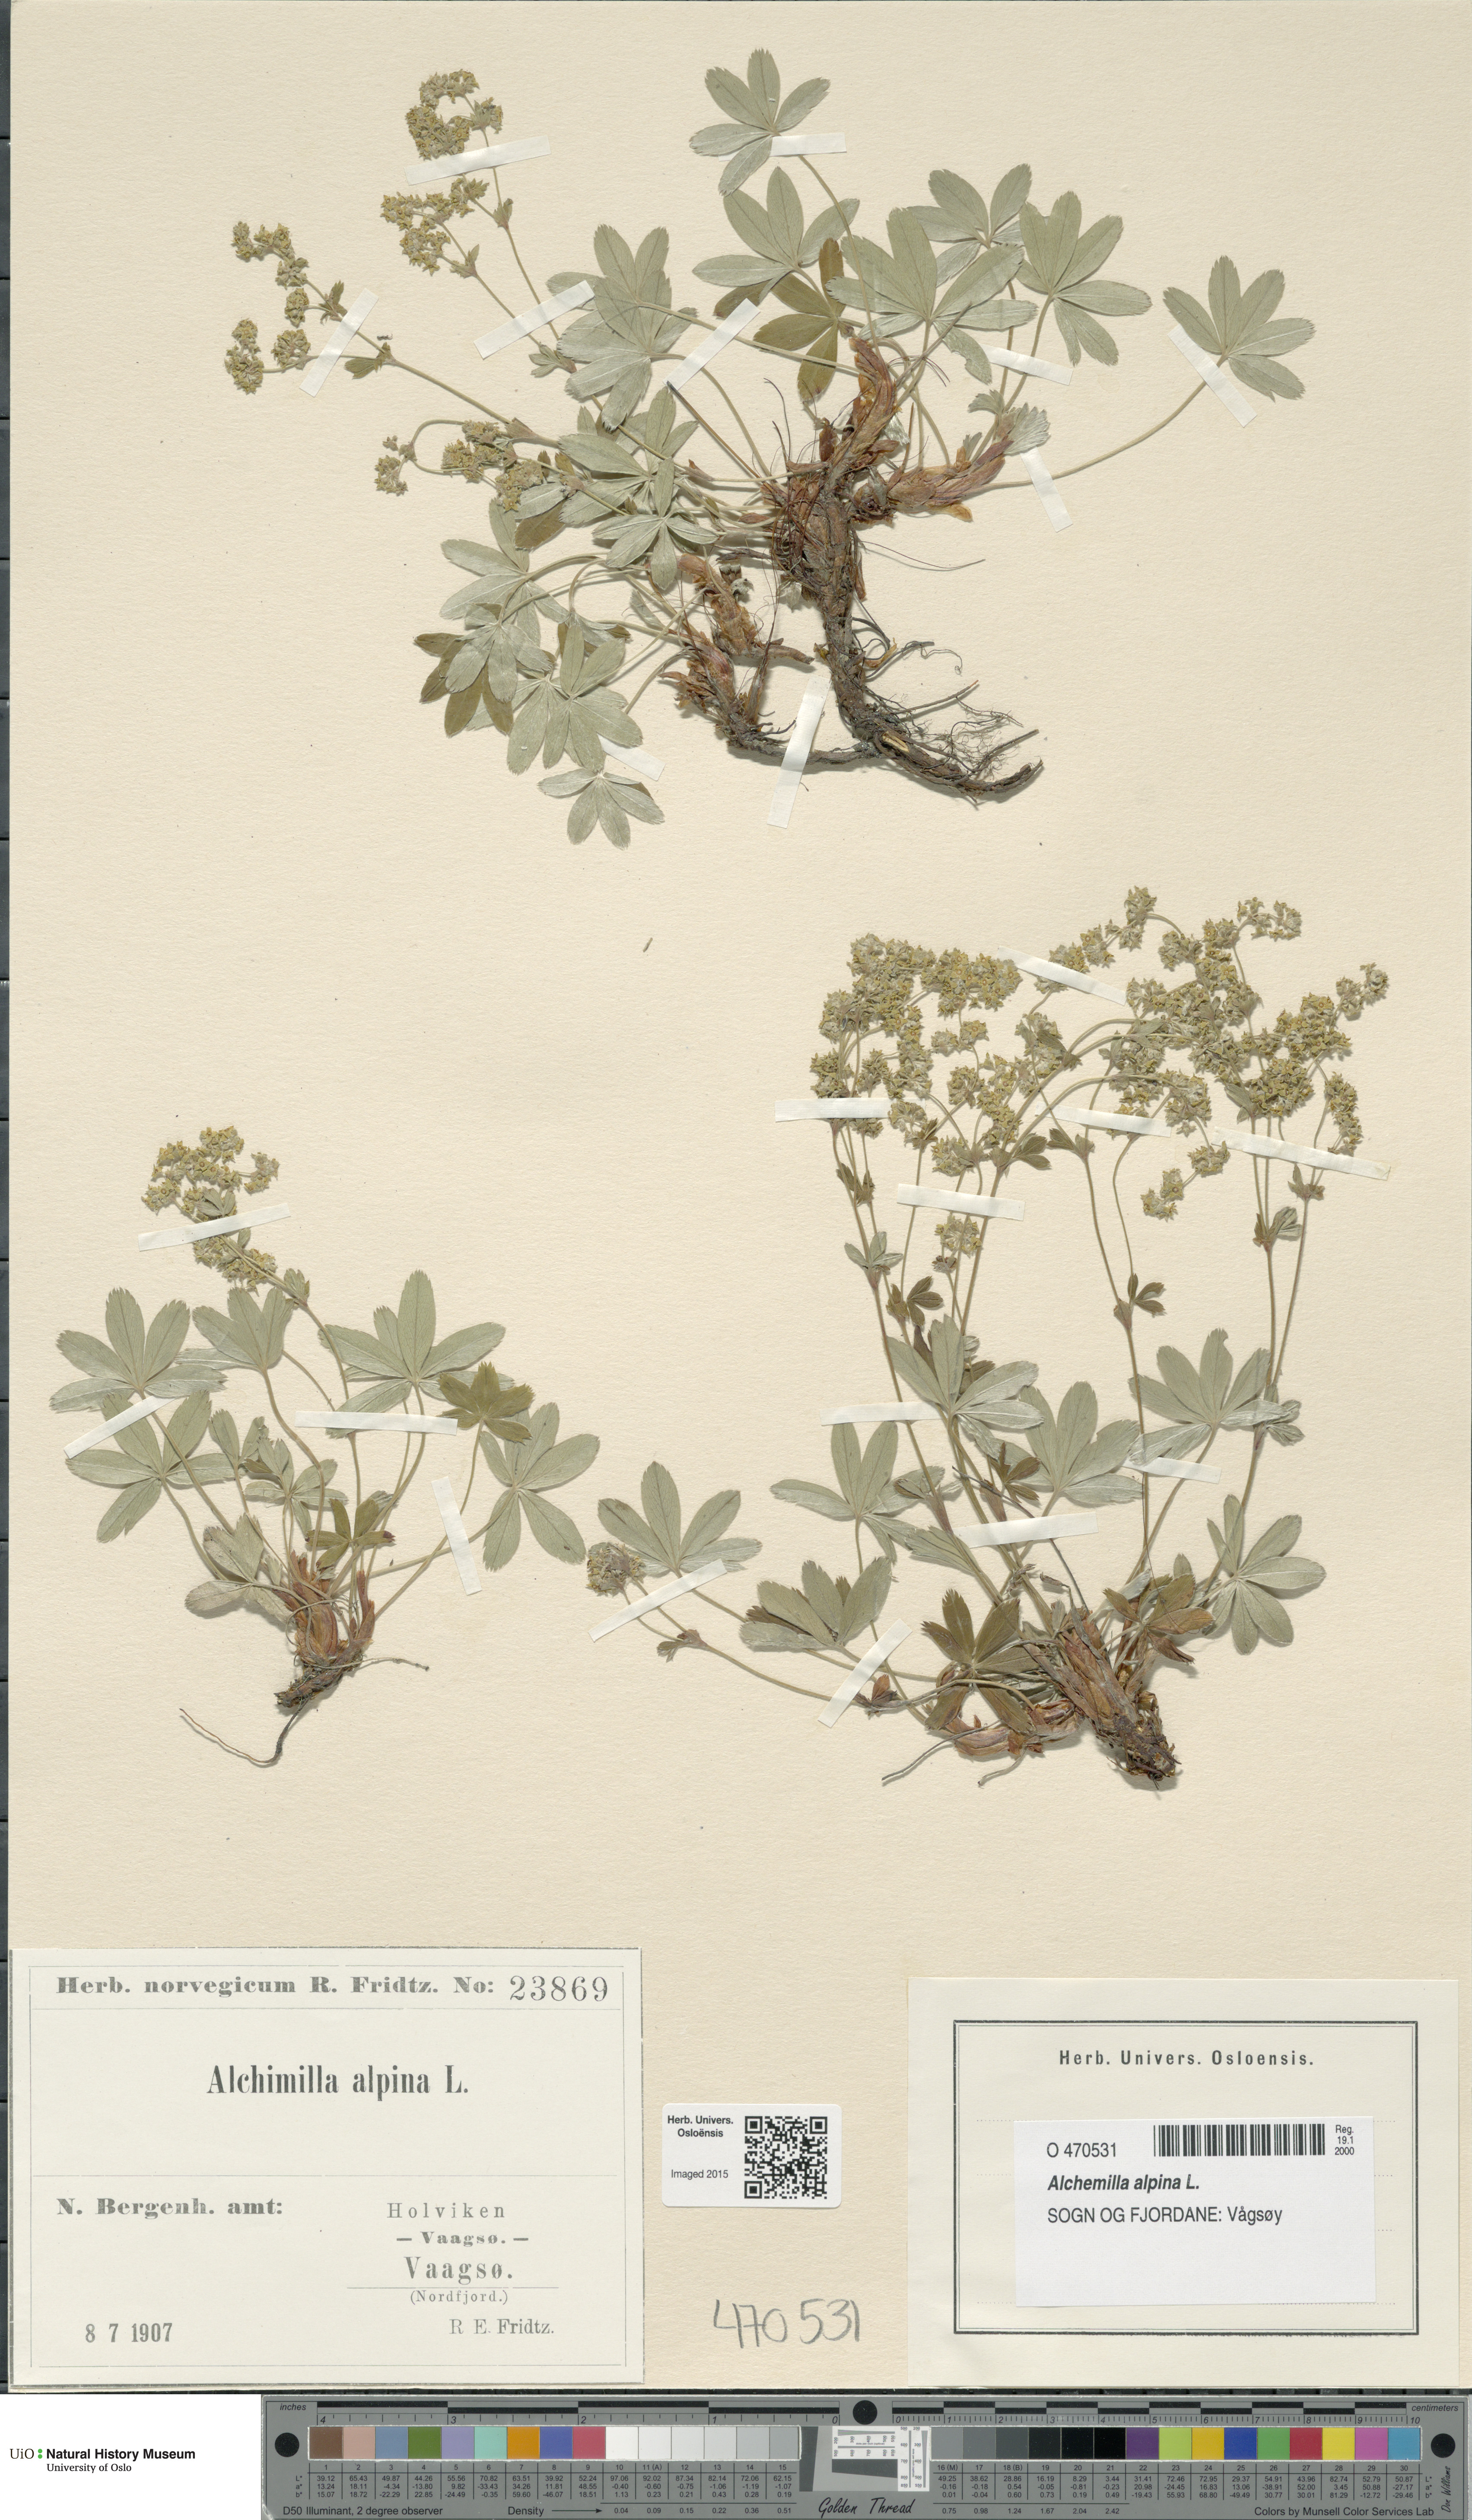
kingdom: Plantae
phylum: Tracheophyta
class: Magnoliopsida
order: Rosales
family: Rosaceae
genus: Alchemilla
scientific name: Alchemilla alpina
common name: Alpine lady's-mantle
